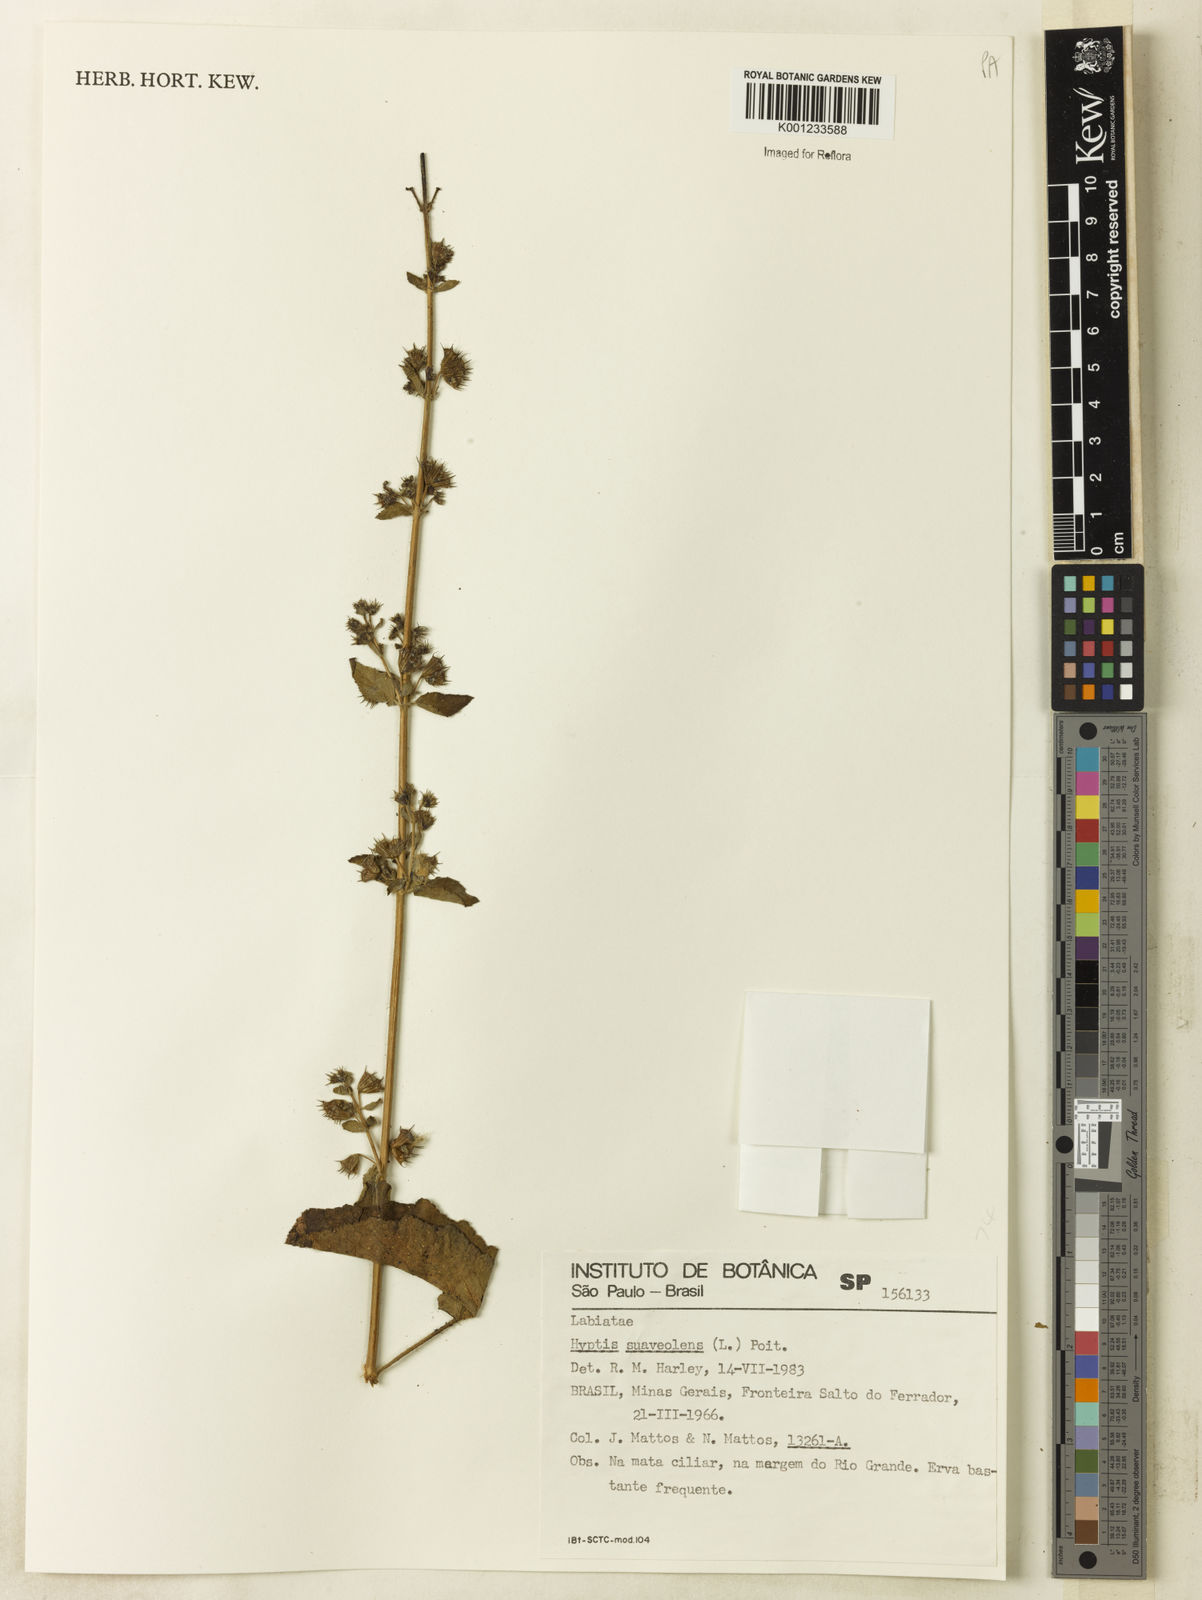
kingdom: Plantae
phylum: Tracheophyta
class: Magnoliopsida
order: Lamiales
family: Lamiaceae
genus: Mesosphaerum
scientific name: Mesosphaerum suaveolens
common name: Pignut
